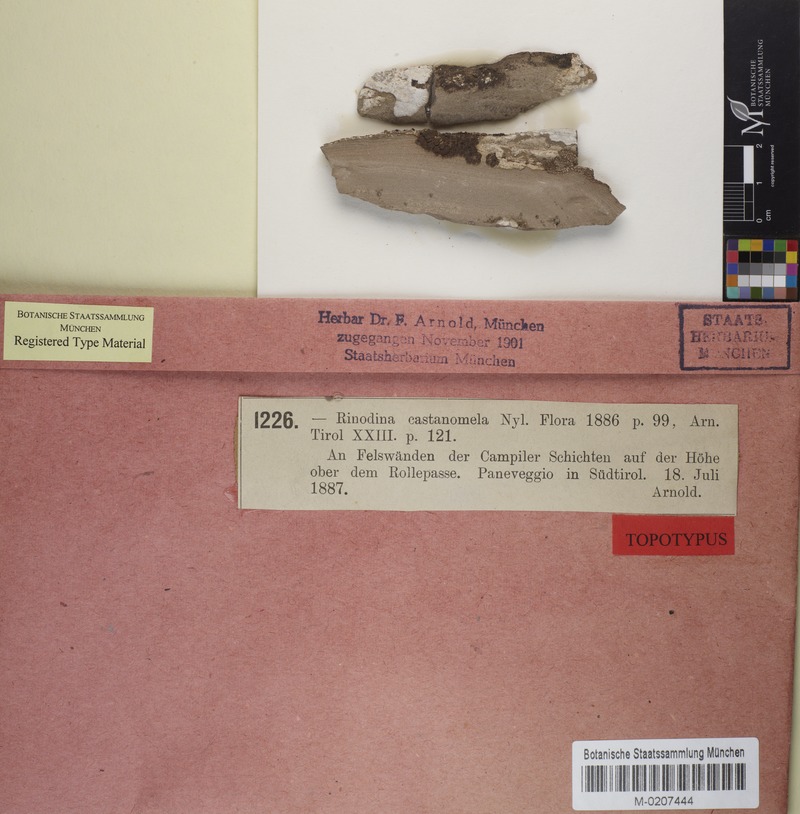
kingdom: Fungi
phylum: Ascomycota
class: Lecanoromycetes
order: Caliciales
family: Physciaceae
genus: Rinodina
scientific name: Rinodina castanomela
